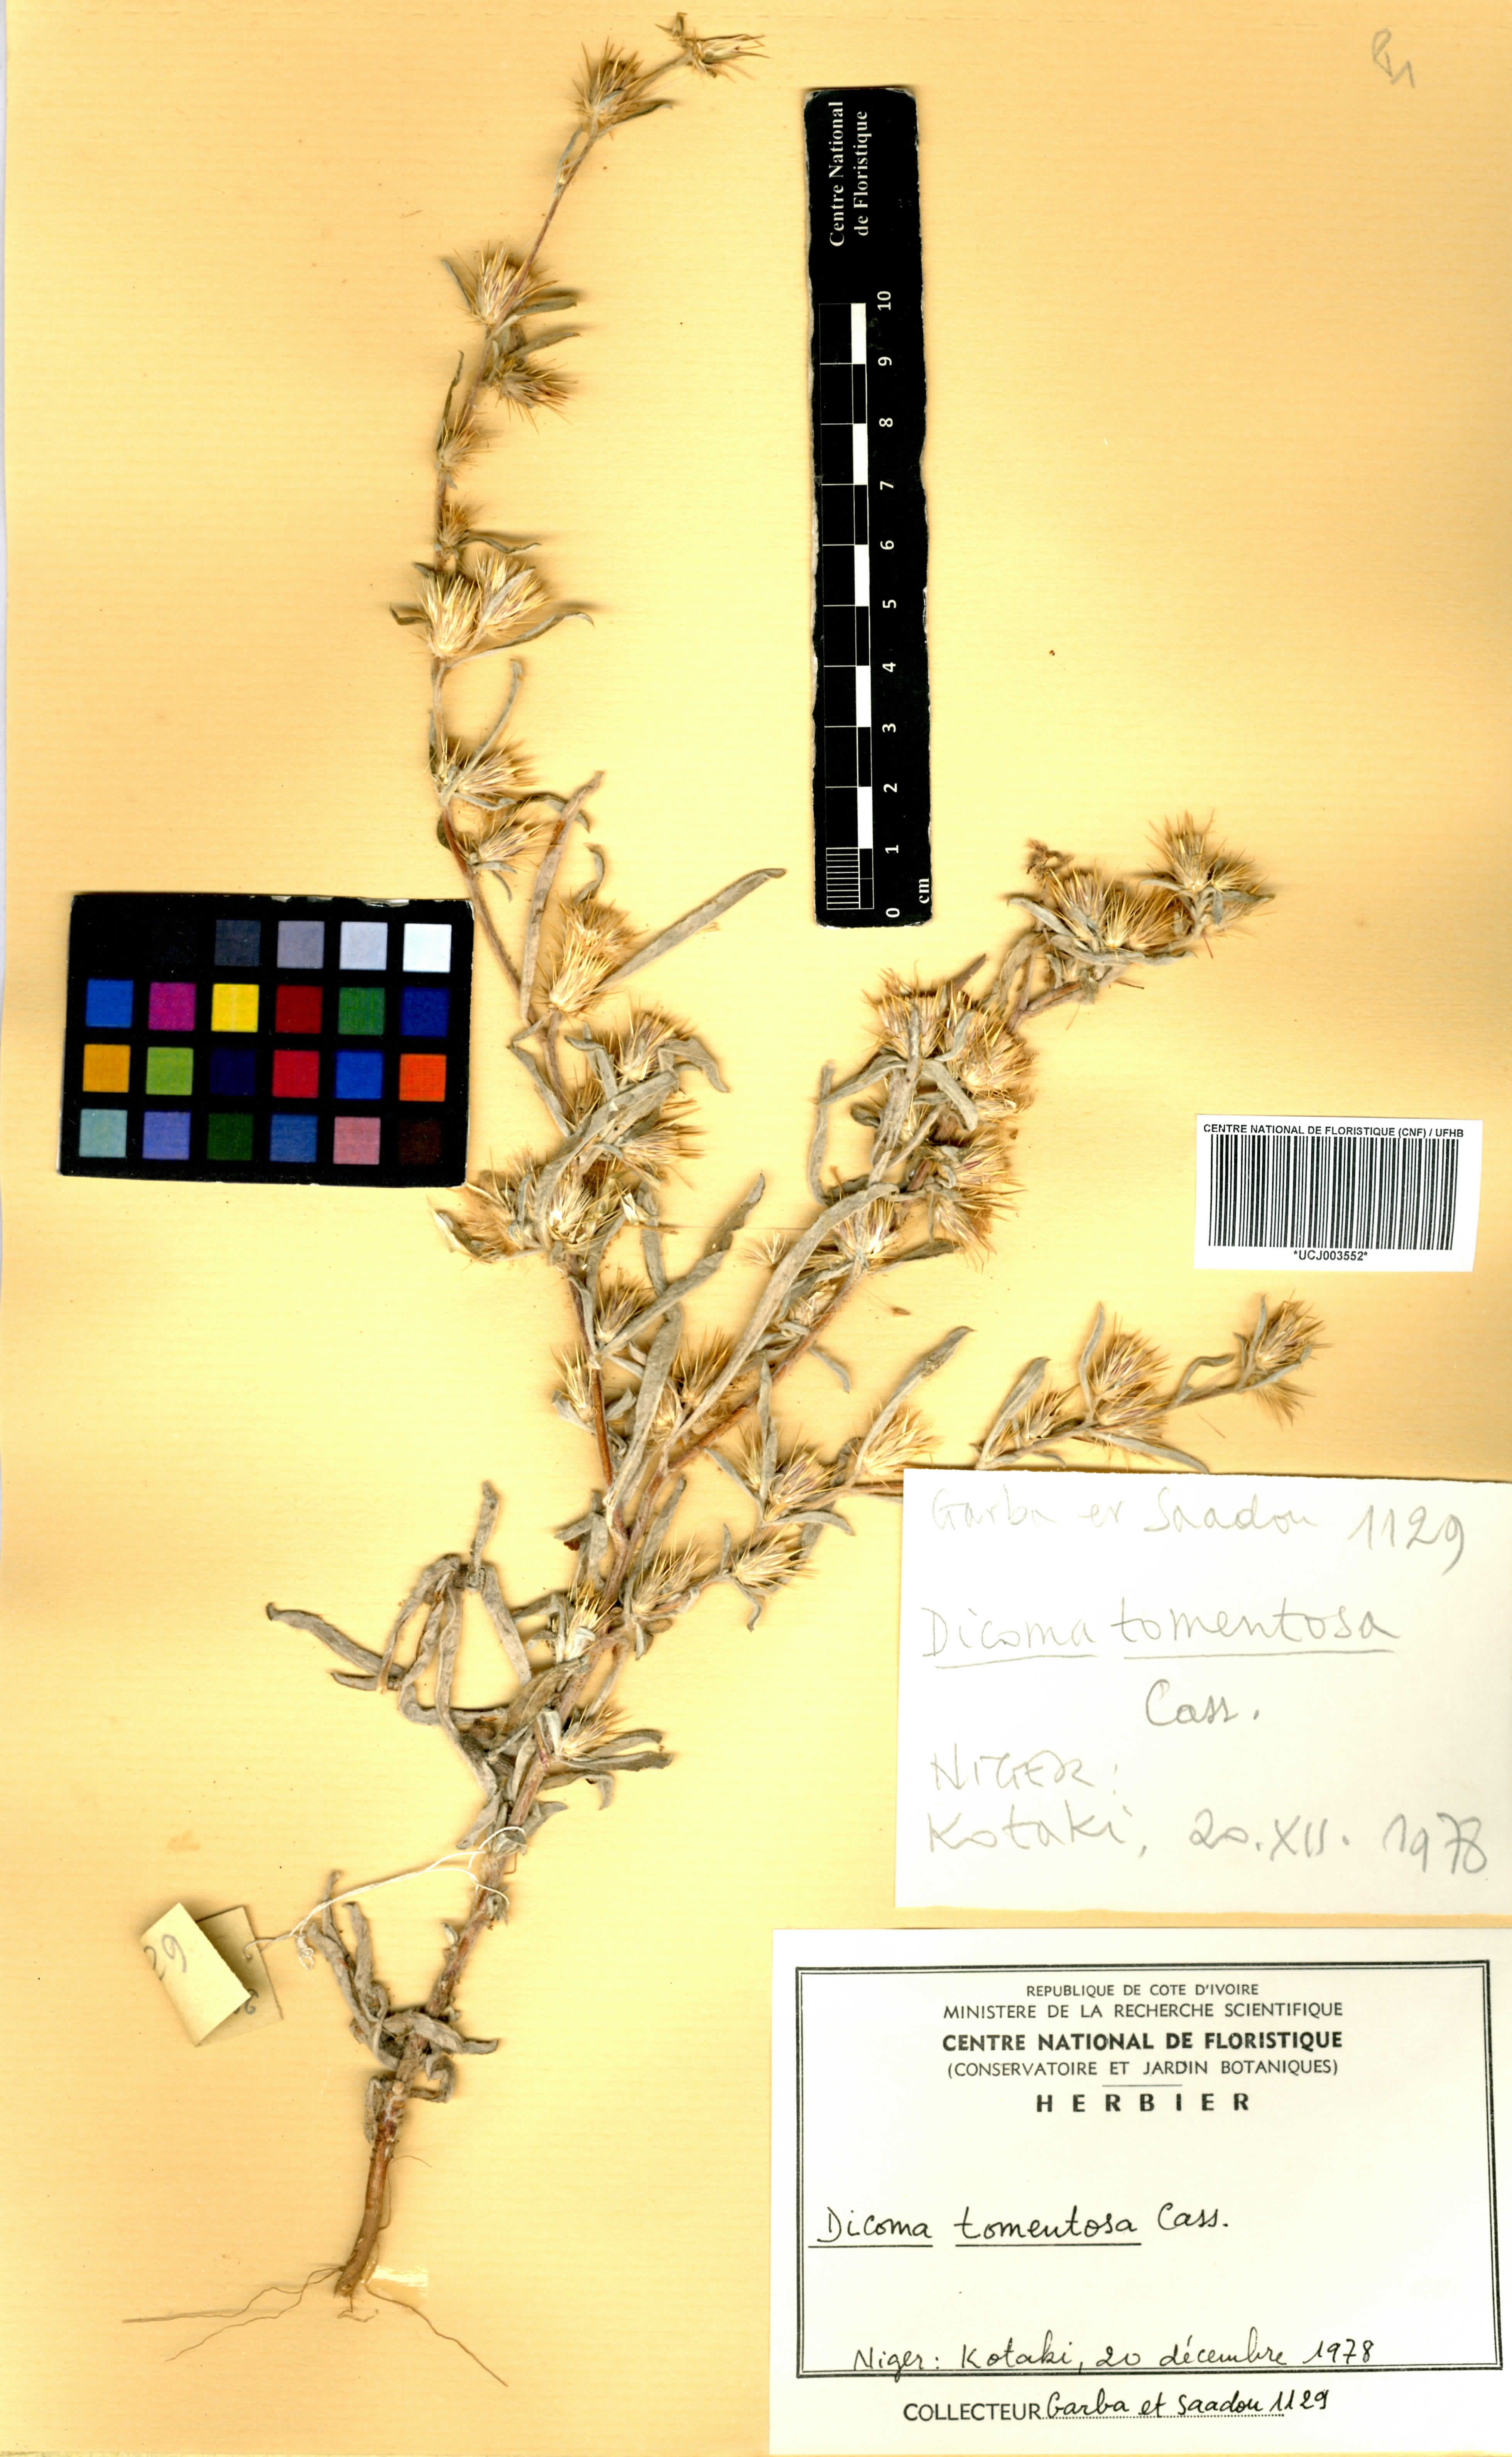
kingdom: Plantae
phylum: Tracheophyta
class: Magnoliopsida
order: Asterales
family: Asteraceae
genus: Dicoma
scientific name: Dicoma tomentosa
